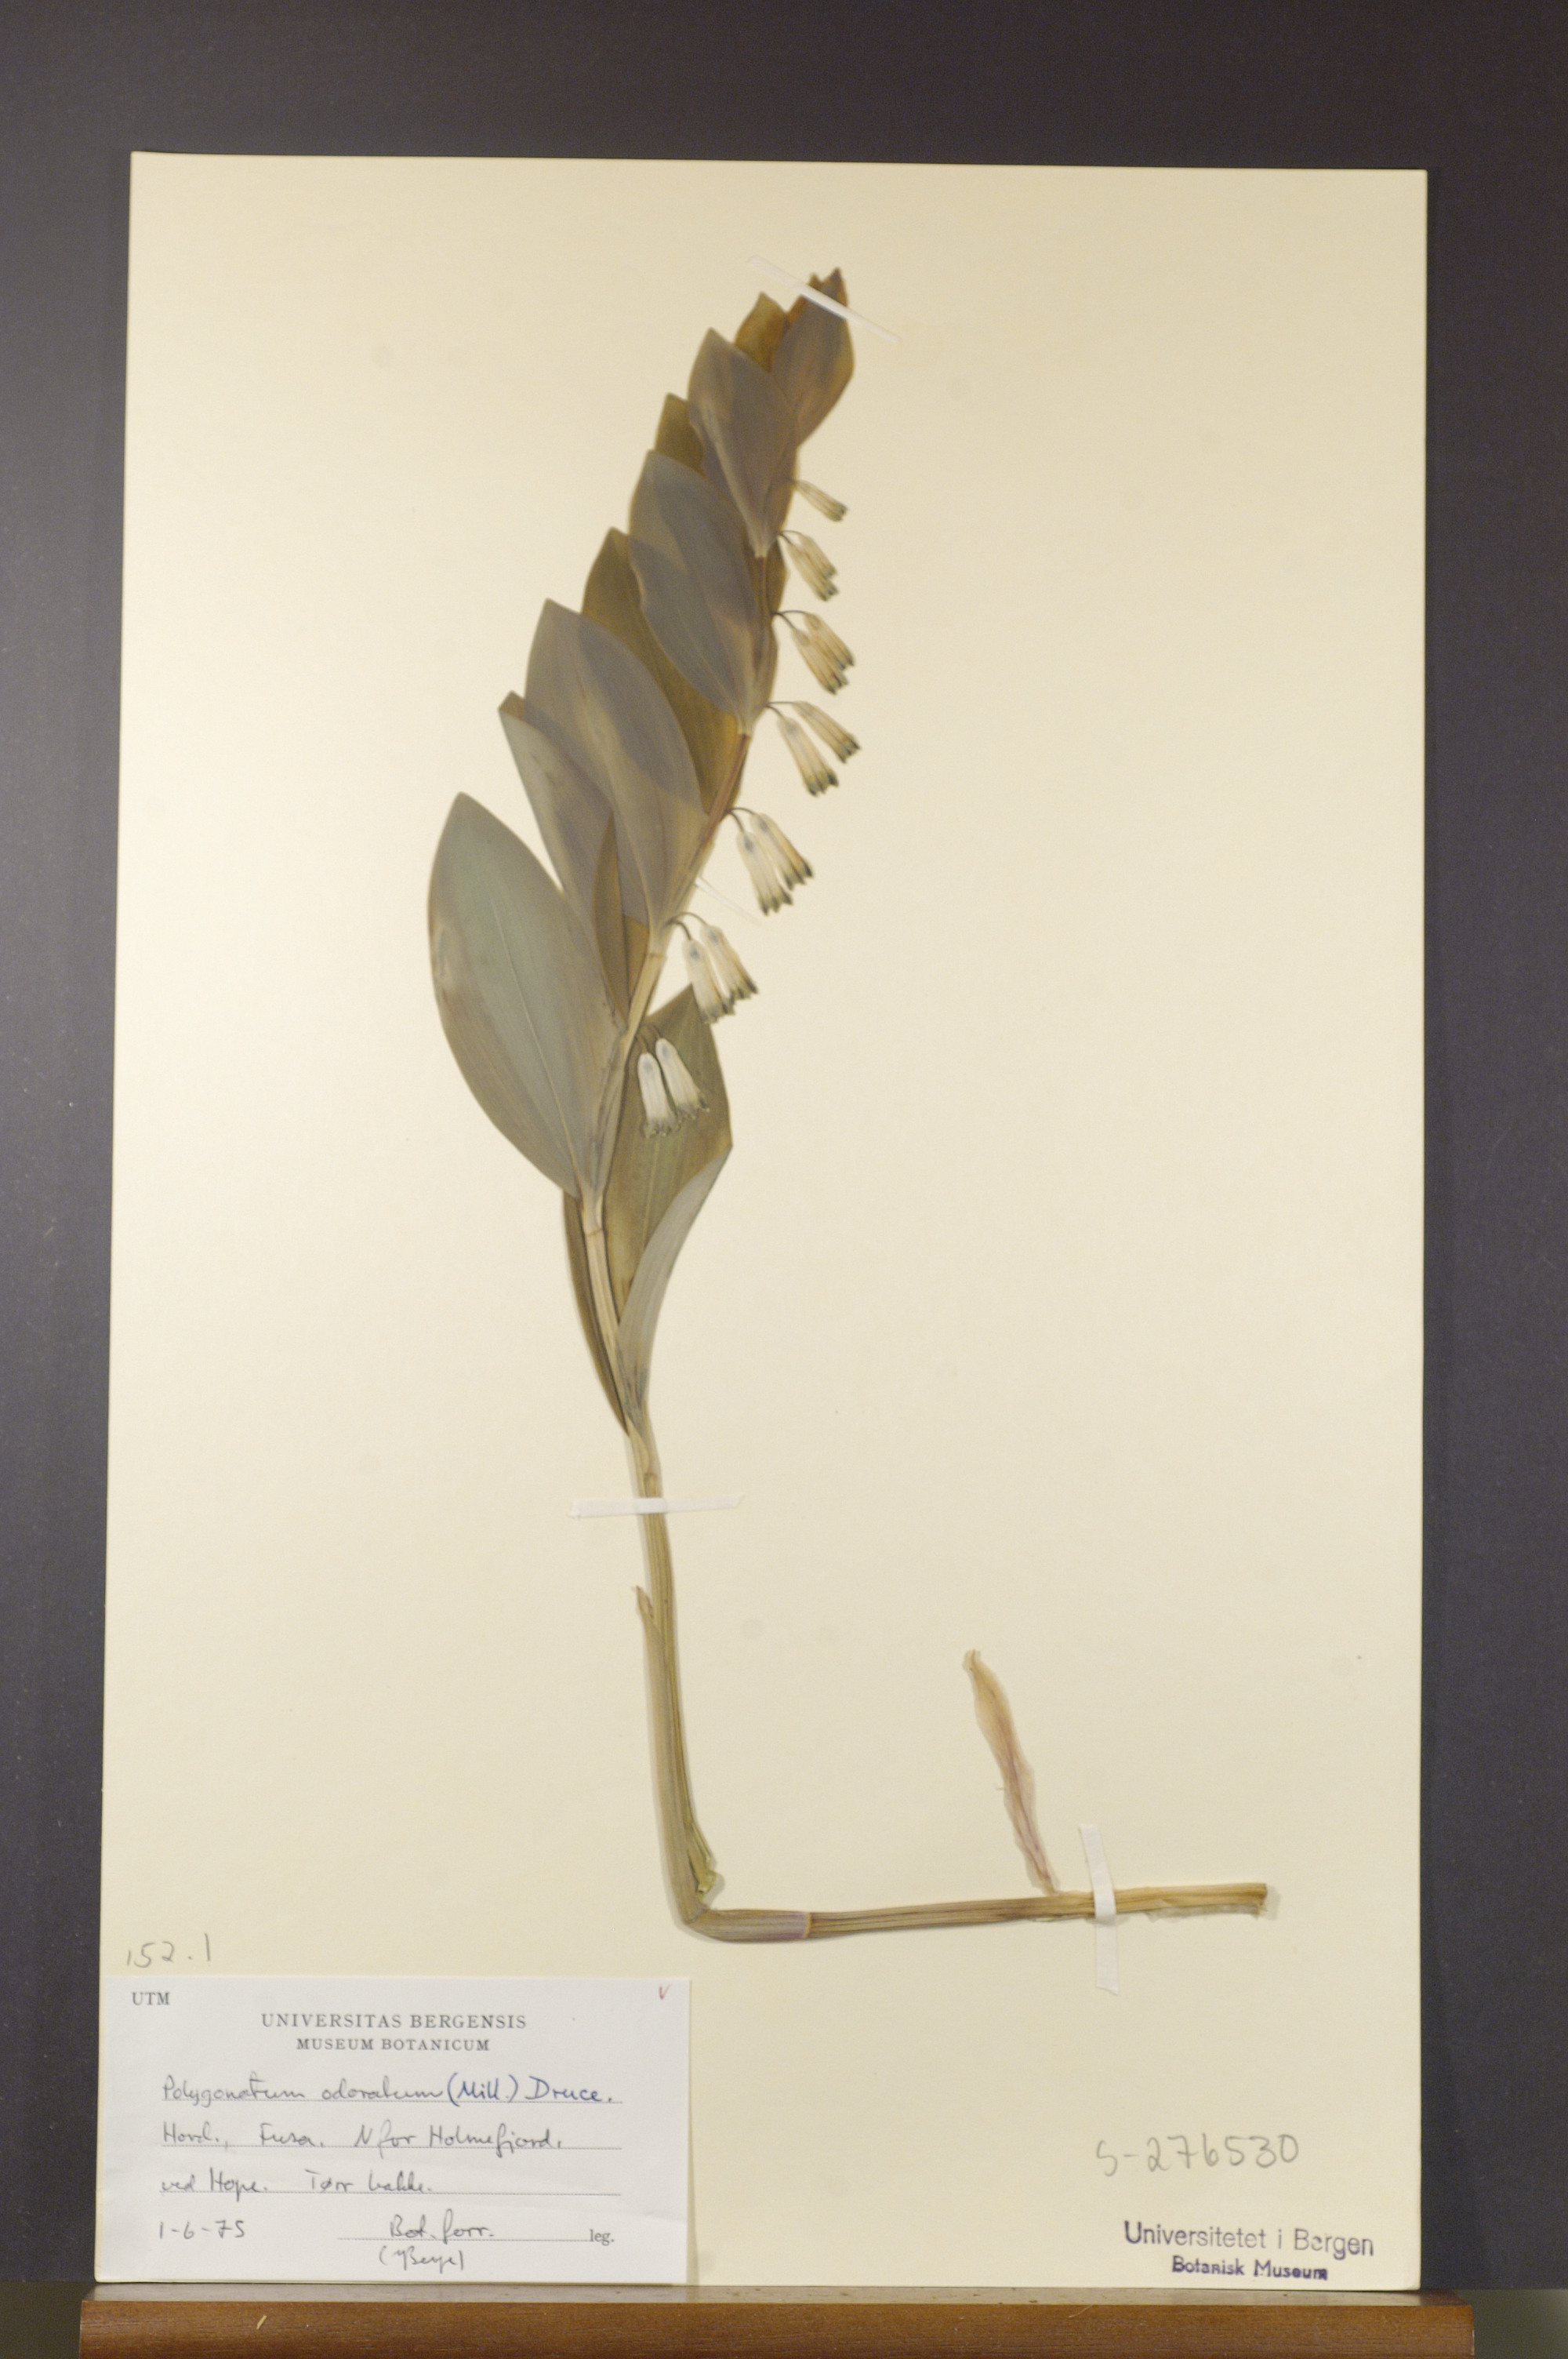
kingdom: Plantae
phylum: Tracheophyta
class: Liliopsida
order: Asparagales
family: Asparagaceae
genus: Polygonatum
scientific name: Polygonatum odoratum
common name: Angular solomon's-seal
